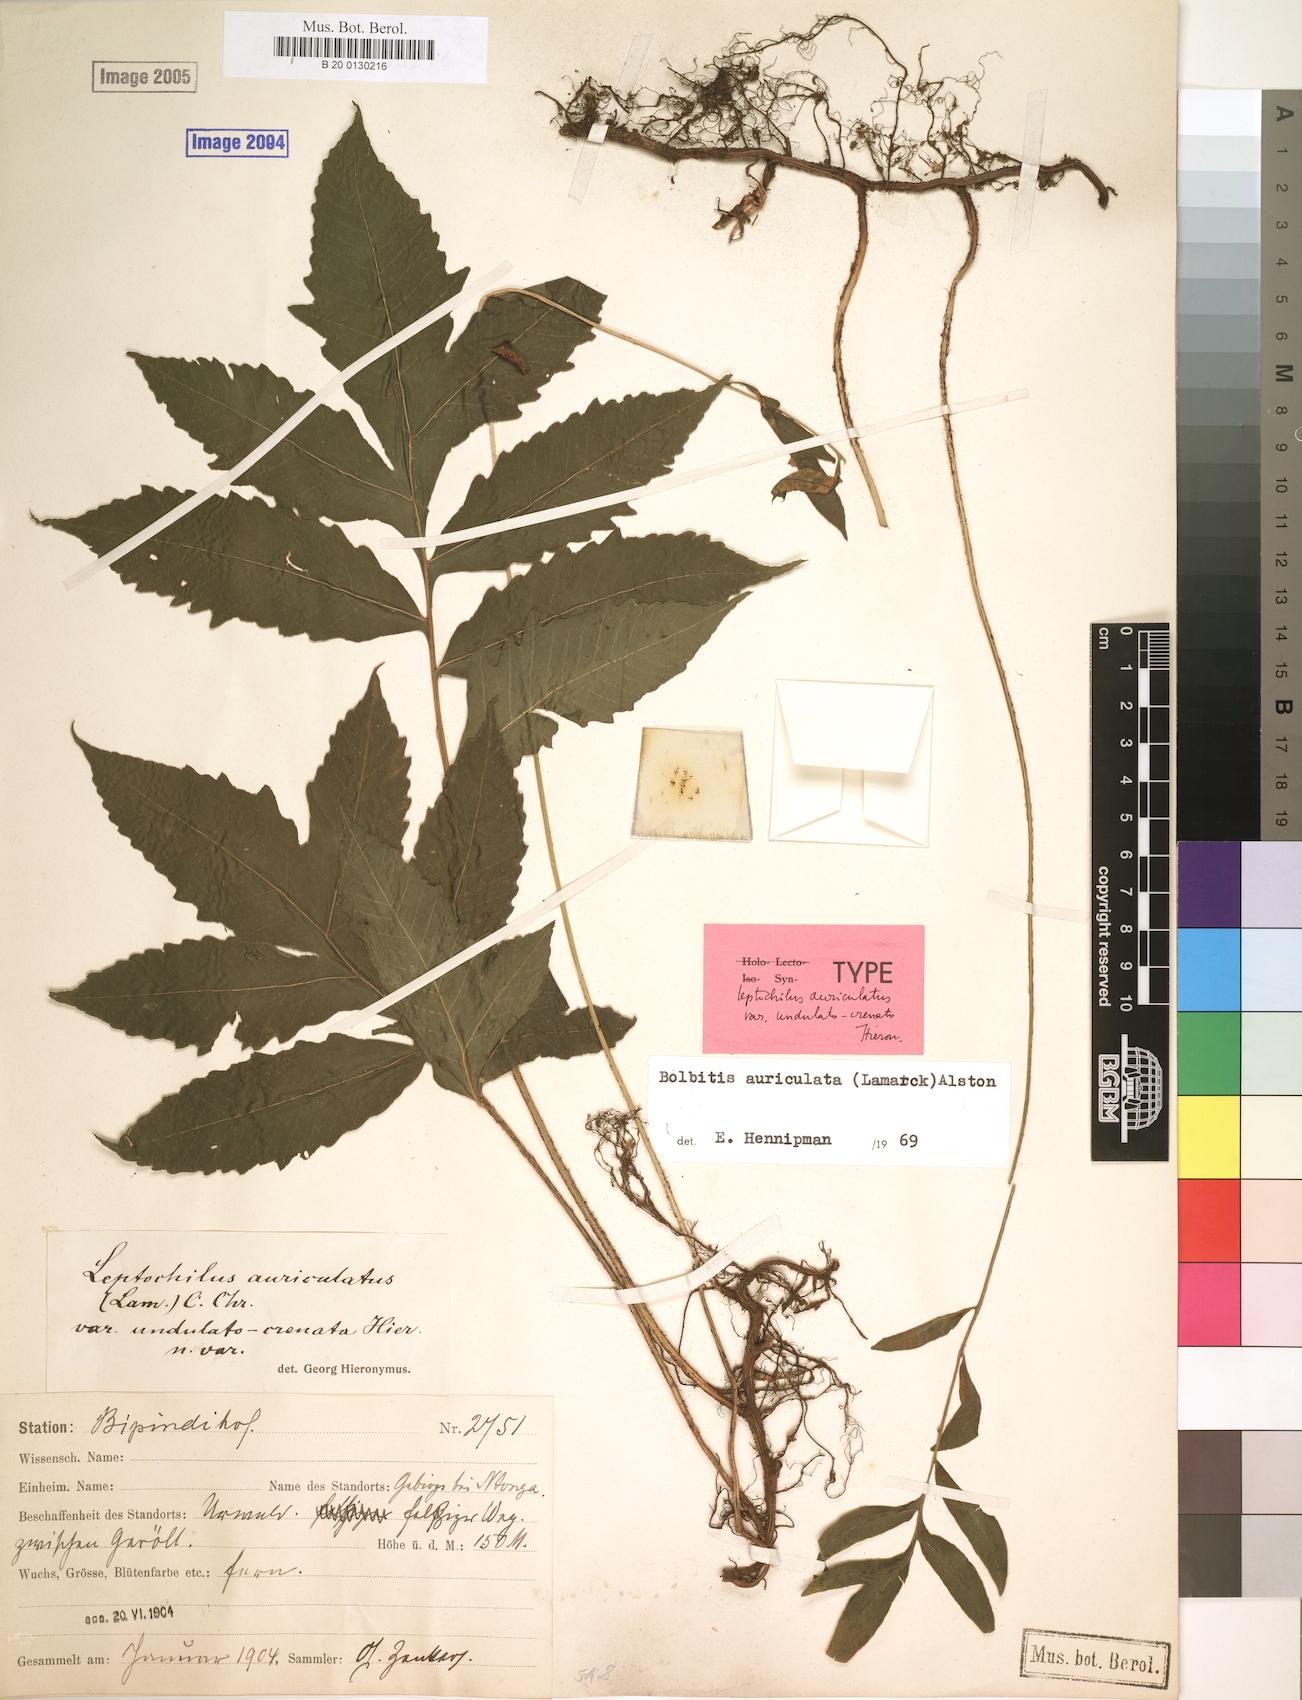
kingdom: Plantae
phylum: Tracheophyta
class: Polypodiopsida
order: Polypodiales
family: Dryopteridaceae
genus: Bolbitis
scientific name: Bolbitis auriculata
